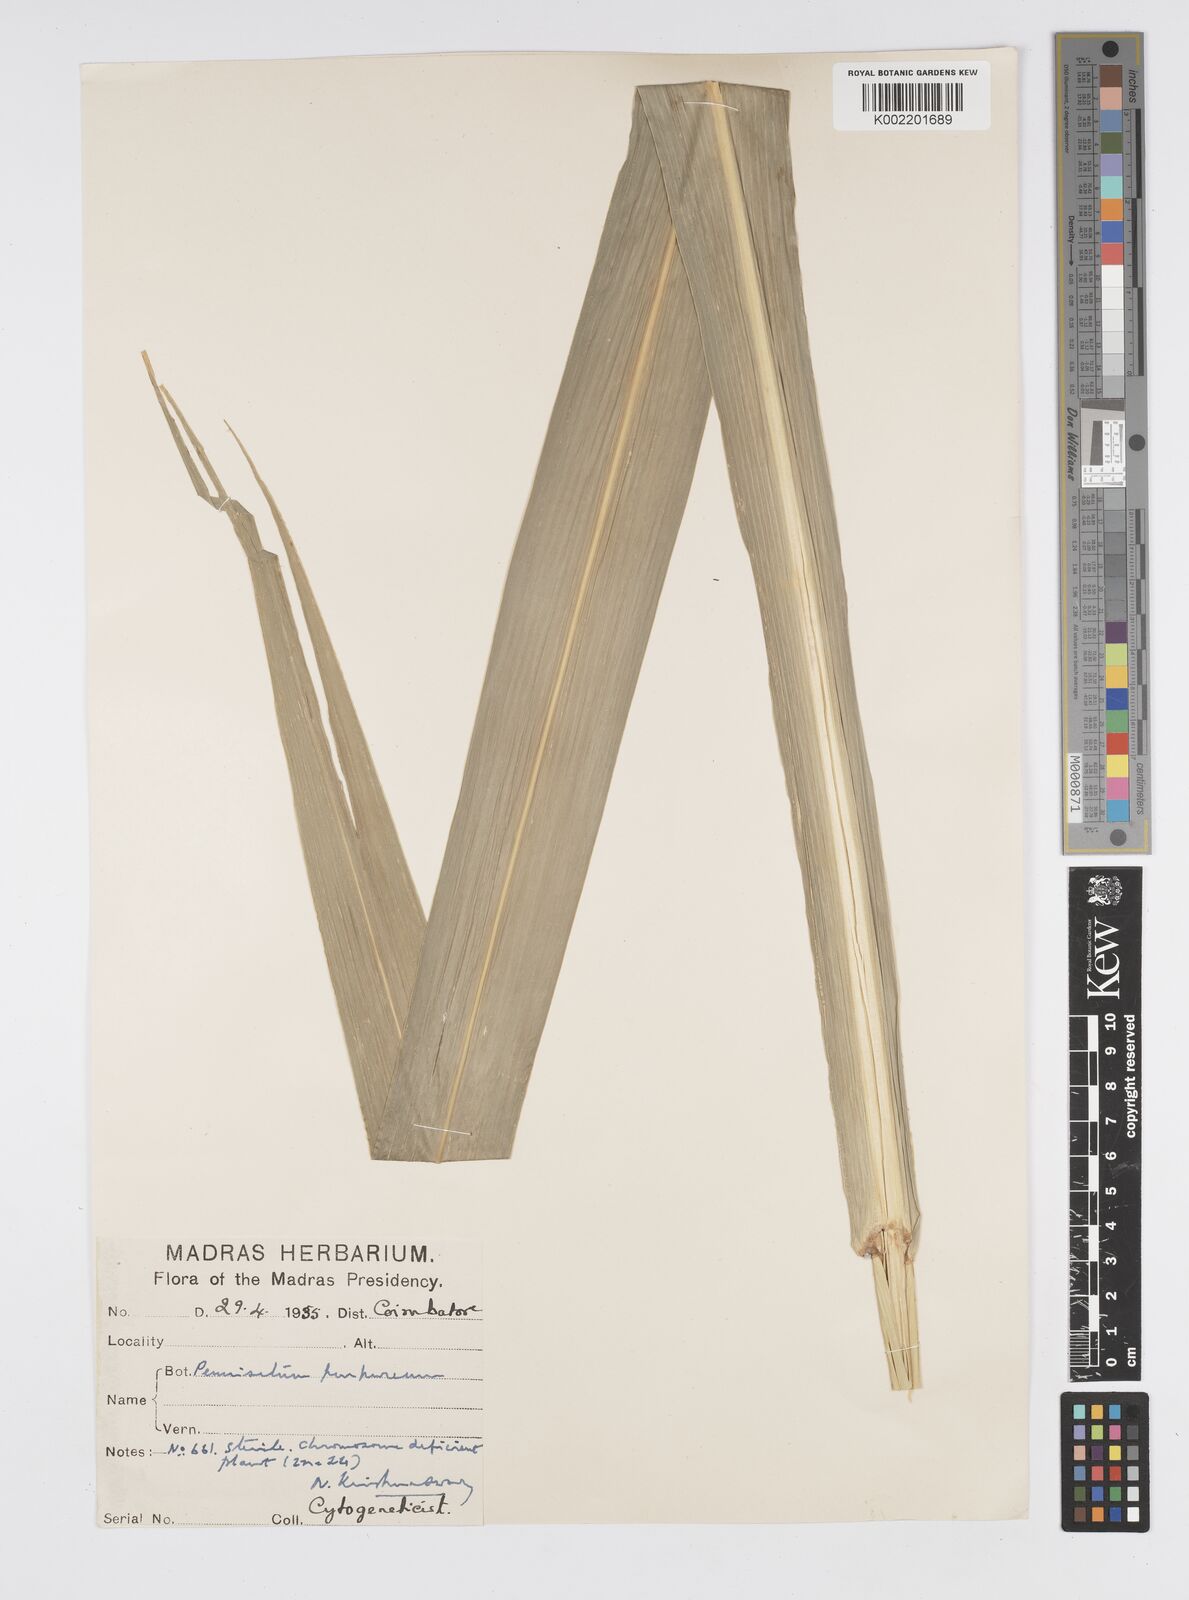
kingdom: Plantae
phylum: Tracheophyta
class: Liliopsida
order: Poales
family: Poaceae
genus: Cenchrus
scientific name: Cenchrus purpureus
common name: Elephant grass
